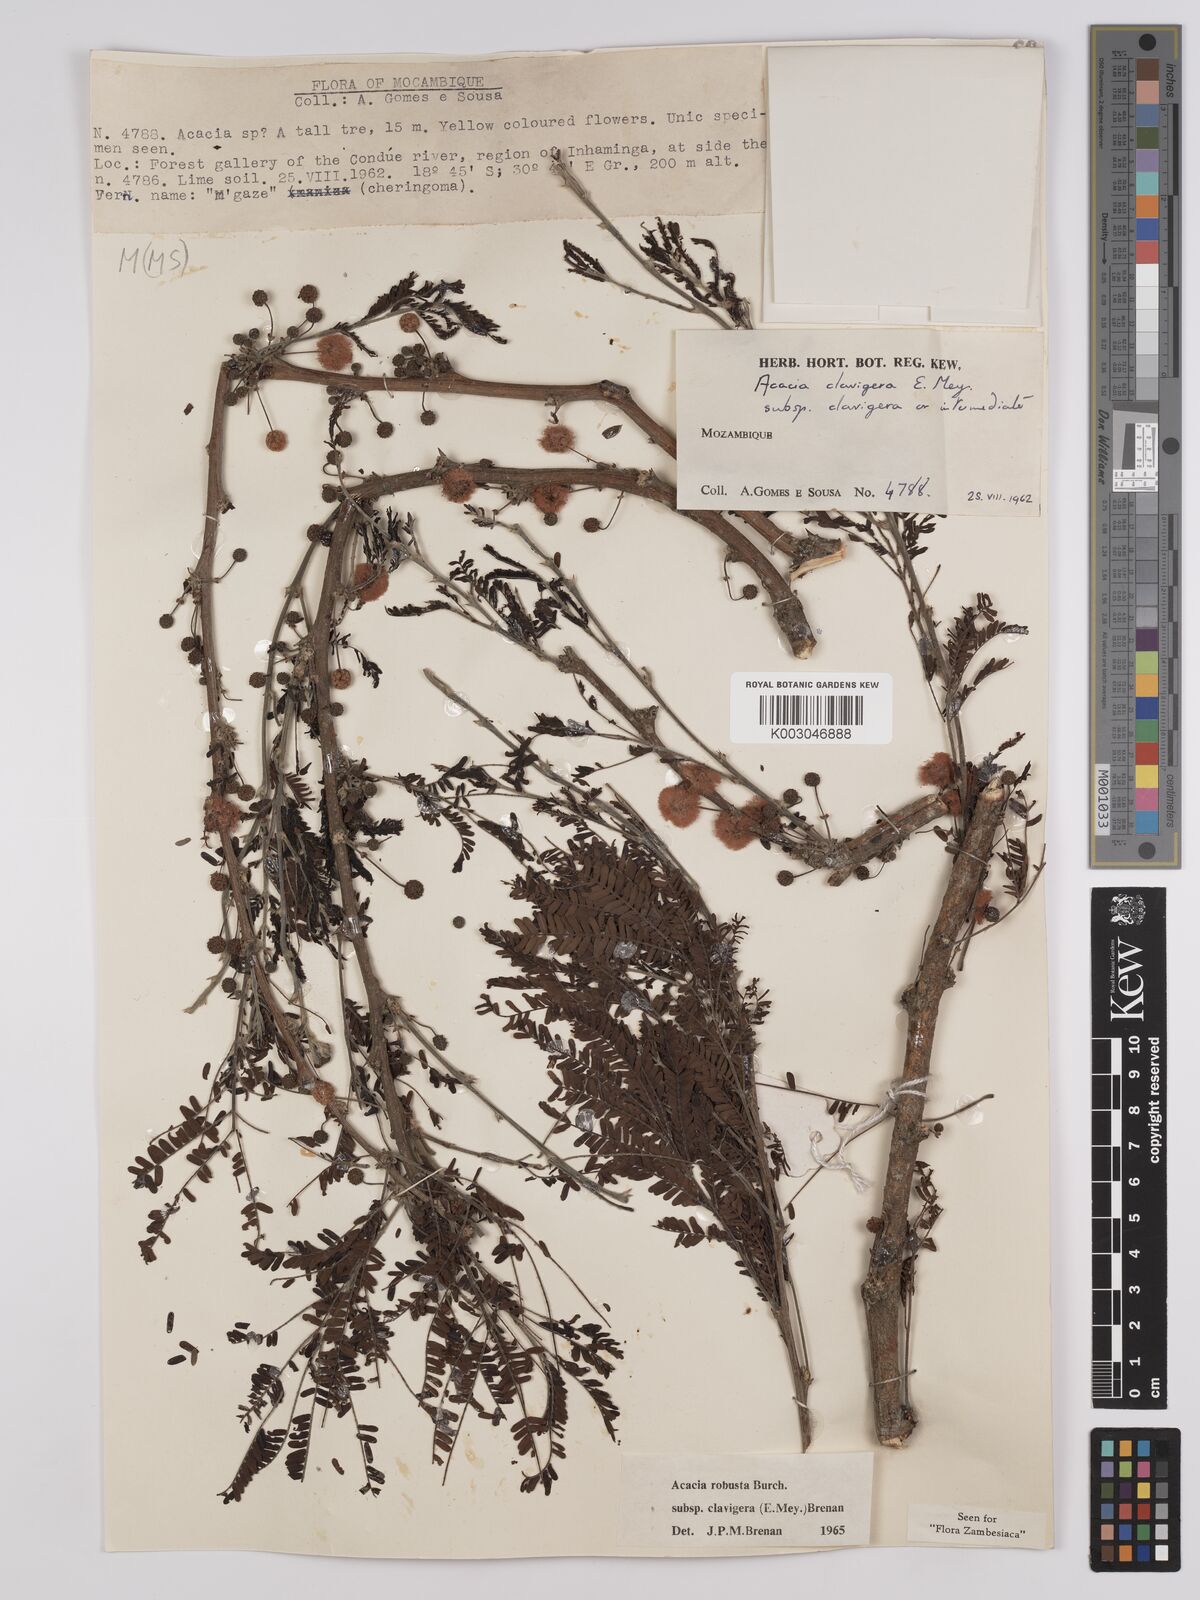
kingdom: Plantae
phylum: Tracheophyta
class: Magnoliopsida
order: Fabales
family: Fabaceae
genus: Vachellia
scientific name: Vachellia robusta
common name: Ankle thorn
